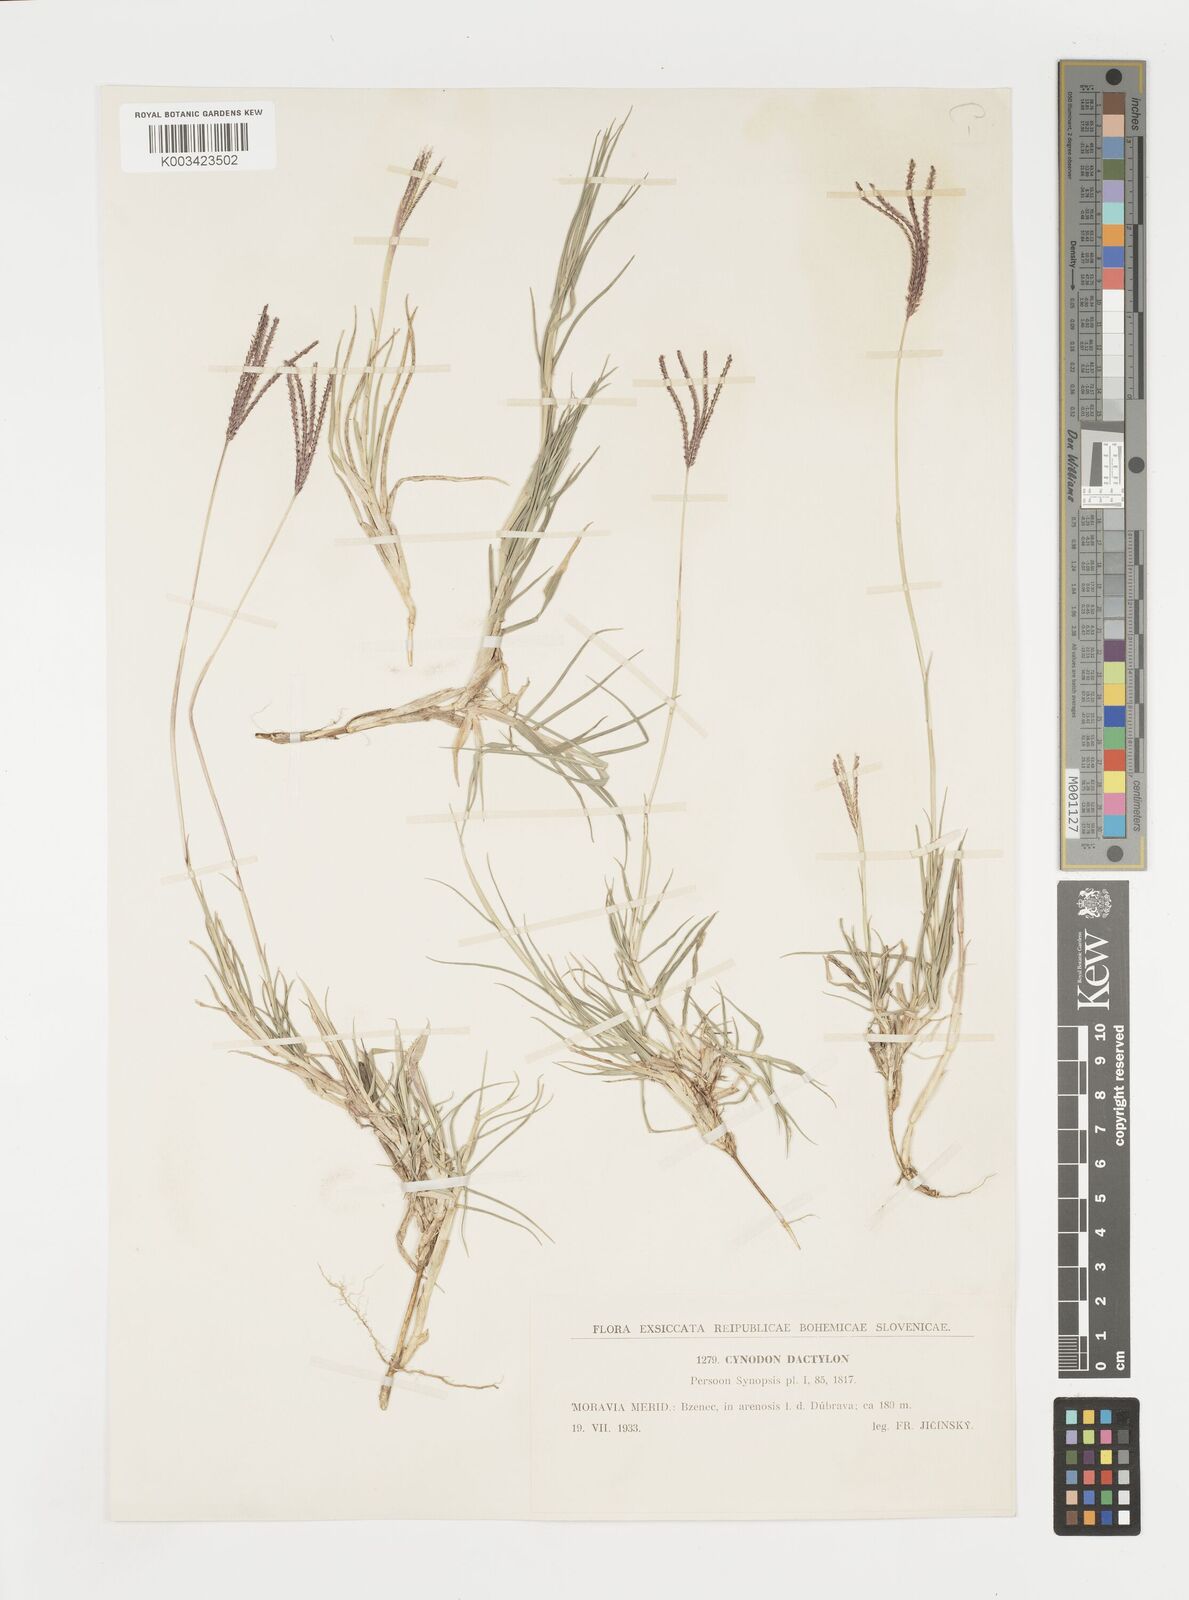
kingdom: Plantae
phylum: Tracheophyta
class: Liliopsida
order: Poales
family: Poaceae
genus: Cynodon
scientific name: Cynodon dactylon
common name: Bermuda grass
